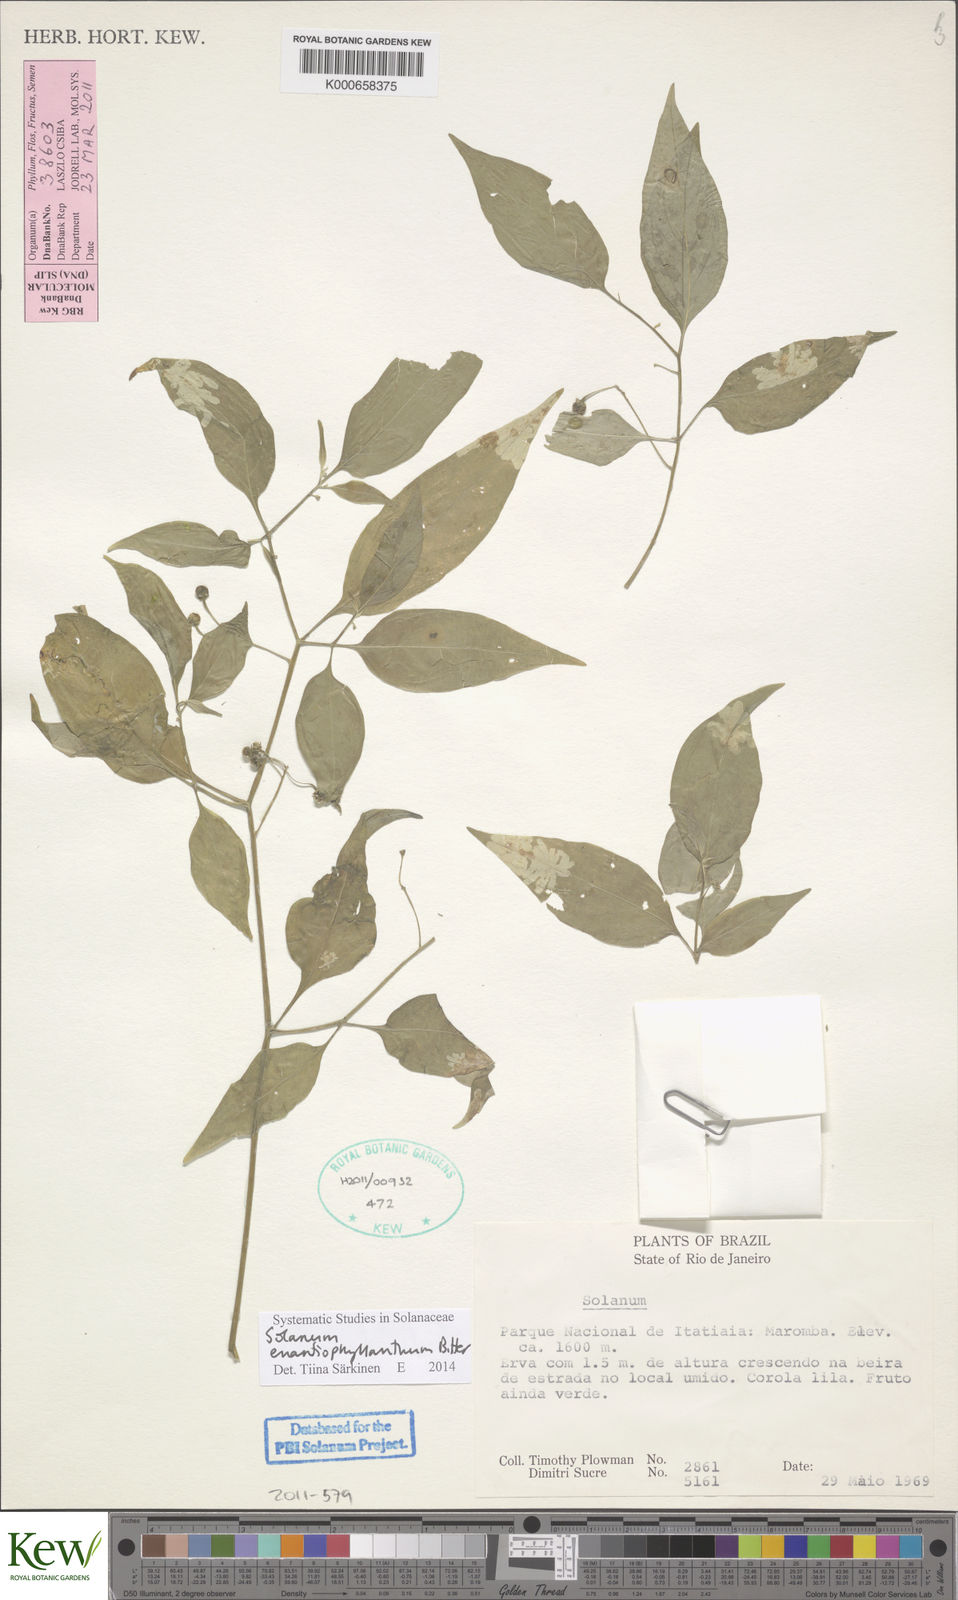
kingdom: Plantae
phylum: Tracheophyta
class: Magnoliopsida
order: Solanales
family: Solanaceae
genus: Solanum
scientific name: Solanum enantiophyllanthum
